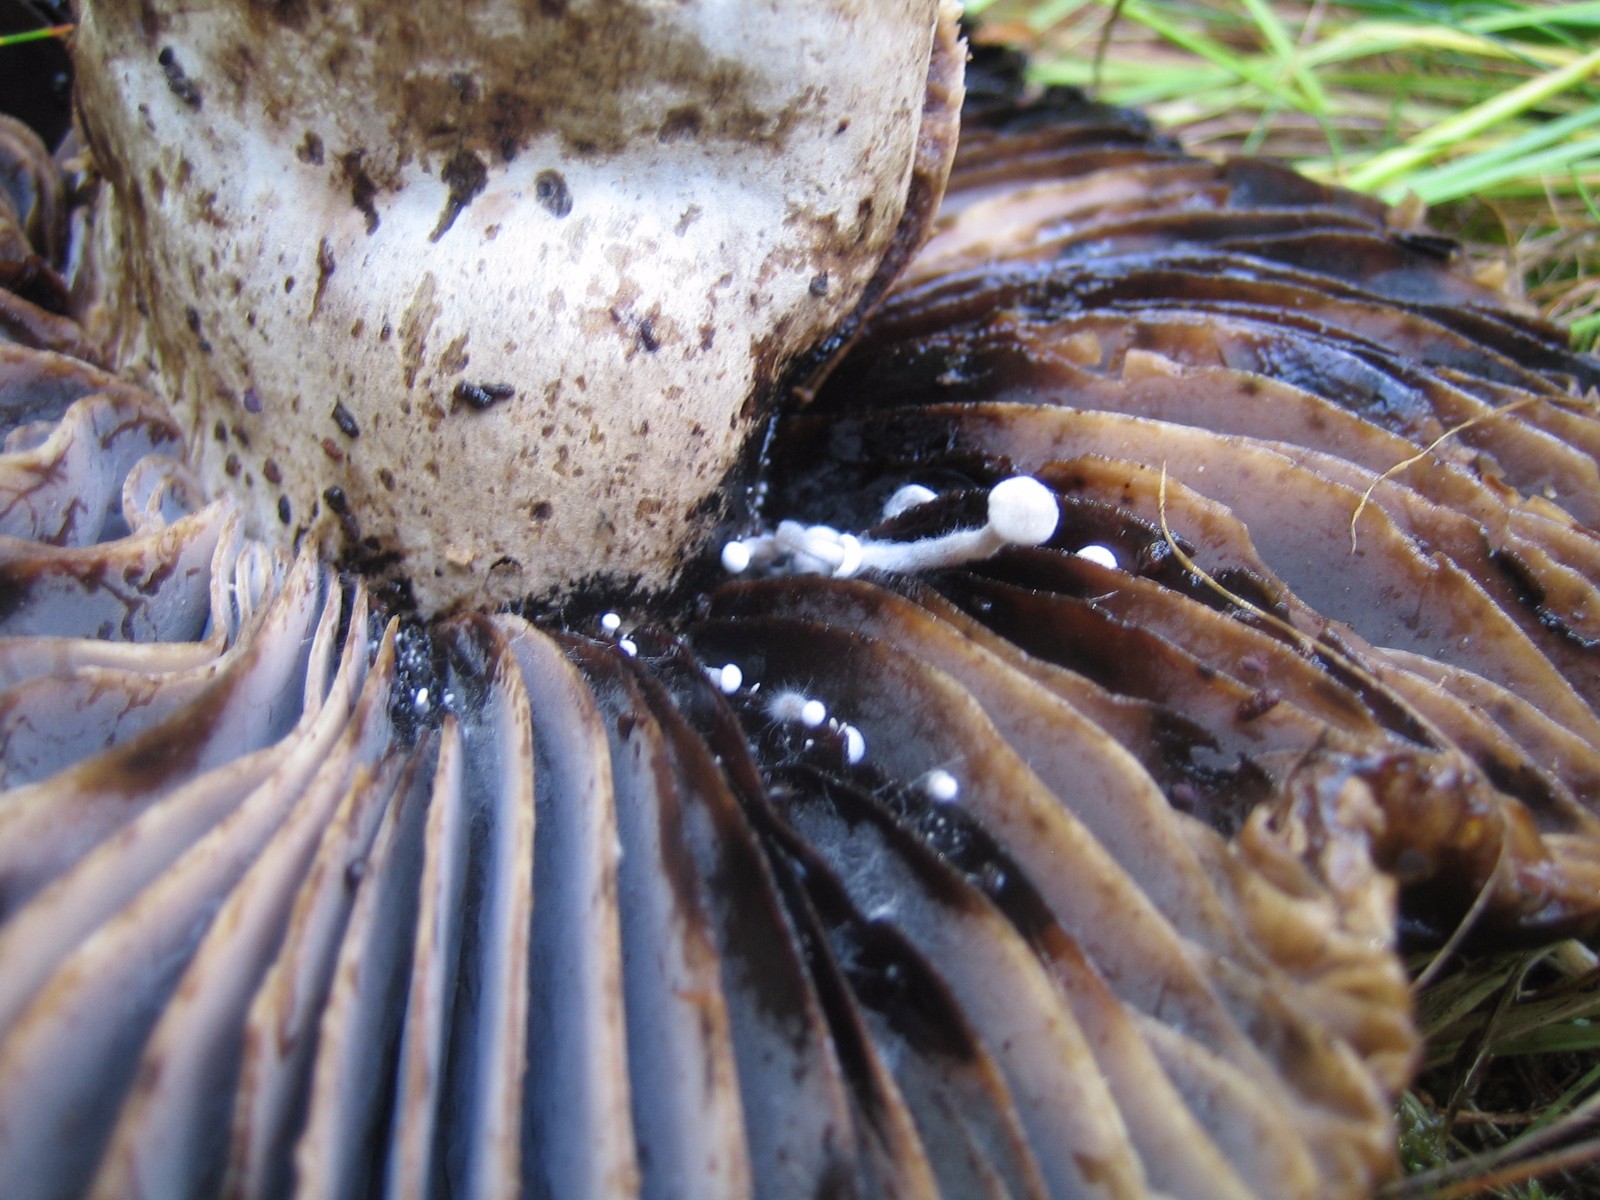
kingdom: Fungi
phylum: Basidiomycota
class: Agaricomycetes
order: Agaricales
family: Lyophyllaceae
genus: Asterophora
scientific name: Asterophora
